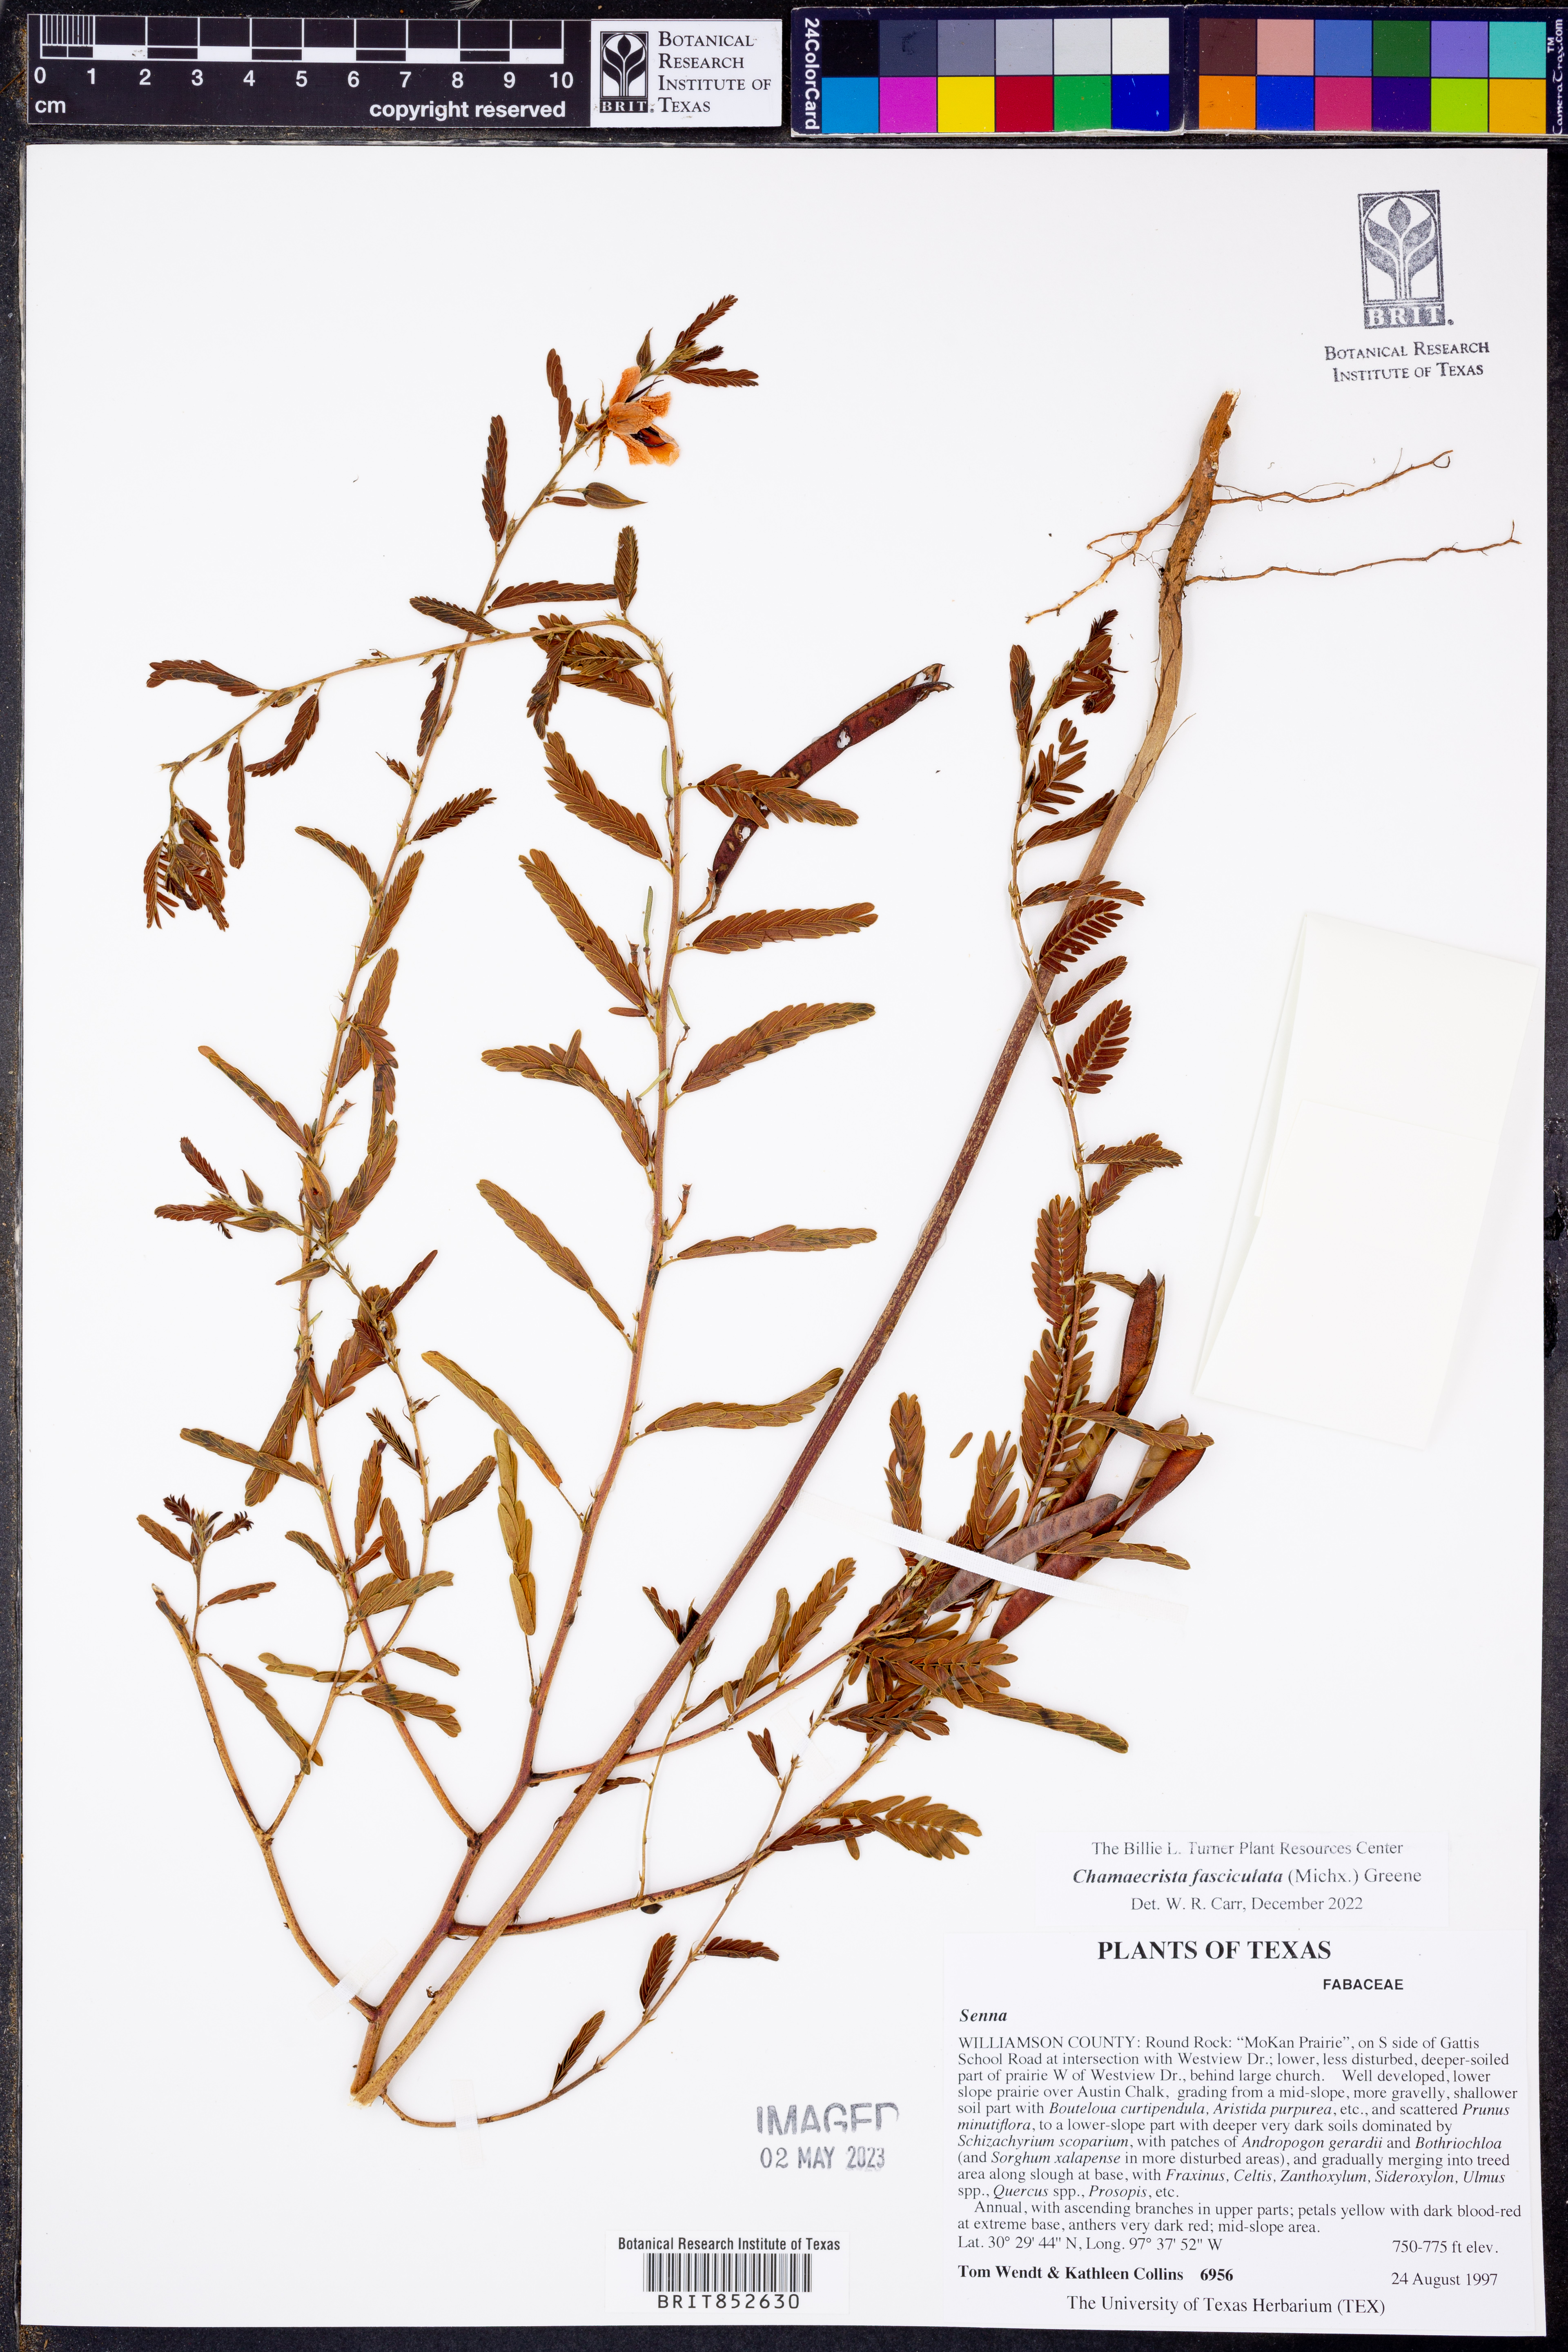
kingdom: Plantae
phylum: Tracheophyta
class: Magnoliopsida
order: Fabales
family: Fabaceae
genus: Chamaecrista
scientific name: Chamaecrista fasciculata
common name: Golden cassia
